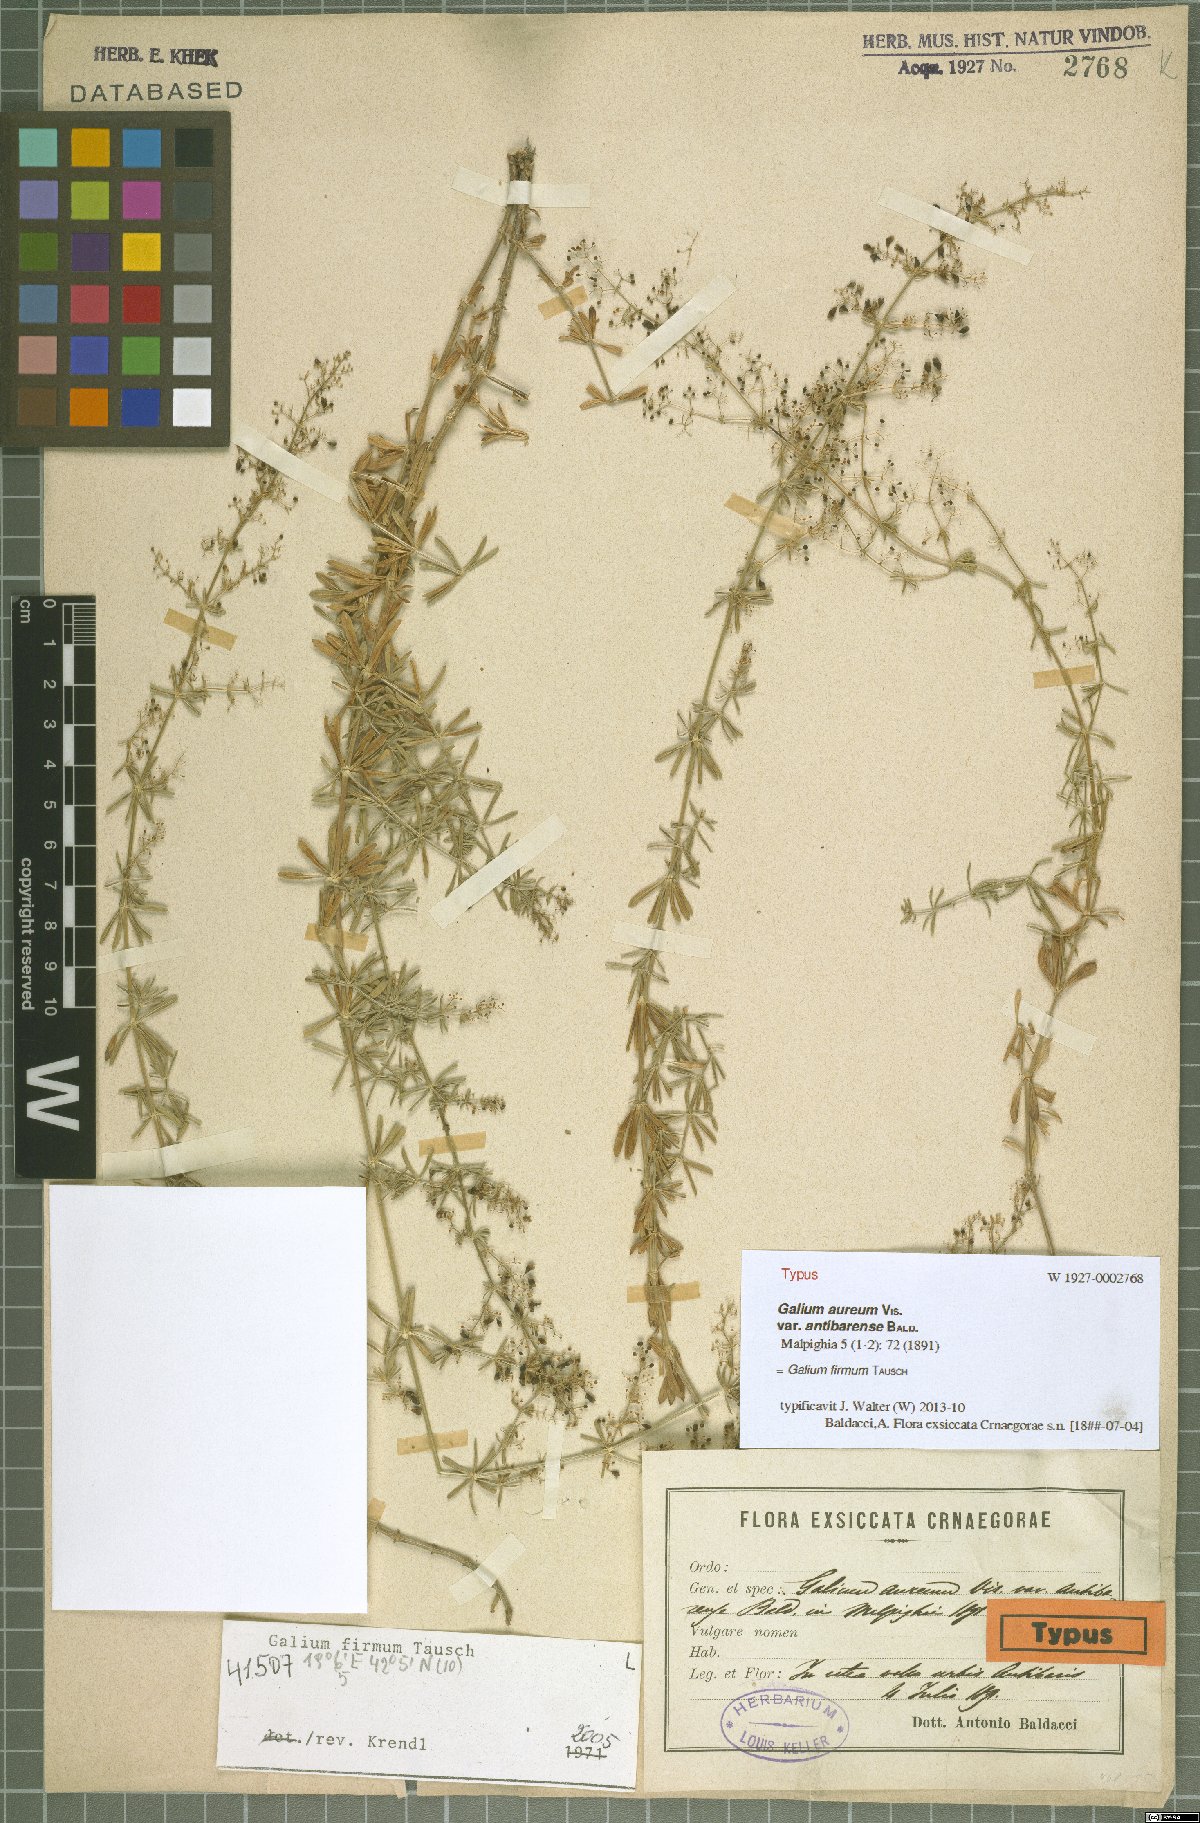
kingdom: Plantae
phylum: Tracheophyta
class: Magnoliopsida
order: Gentianales
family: Rubiaceae
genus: Galium
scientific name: Galium firmum
